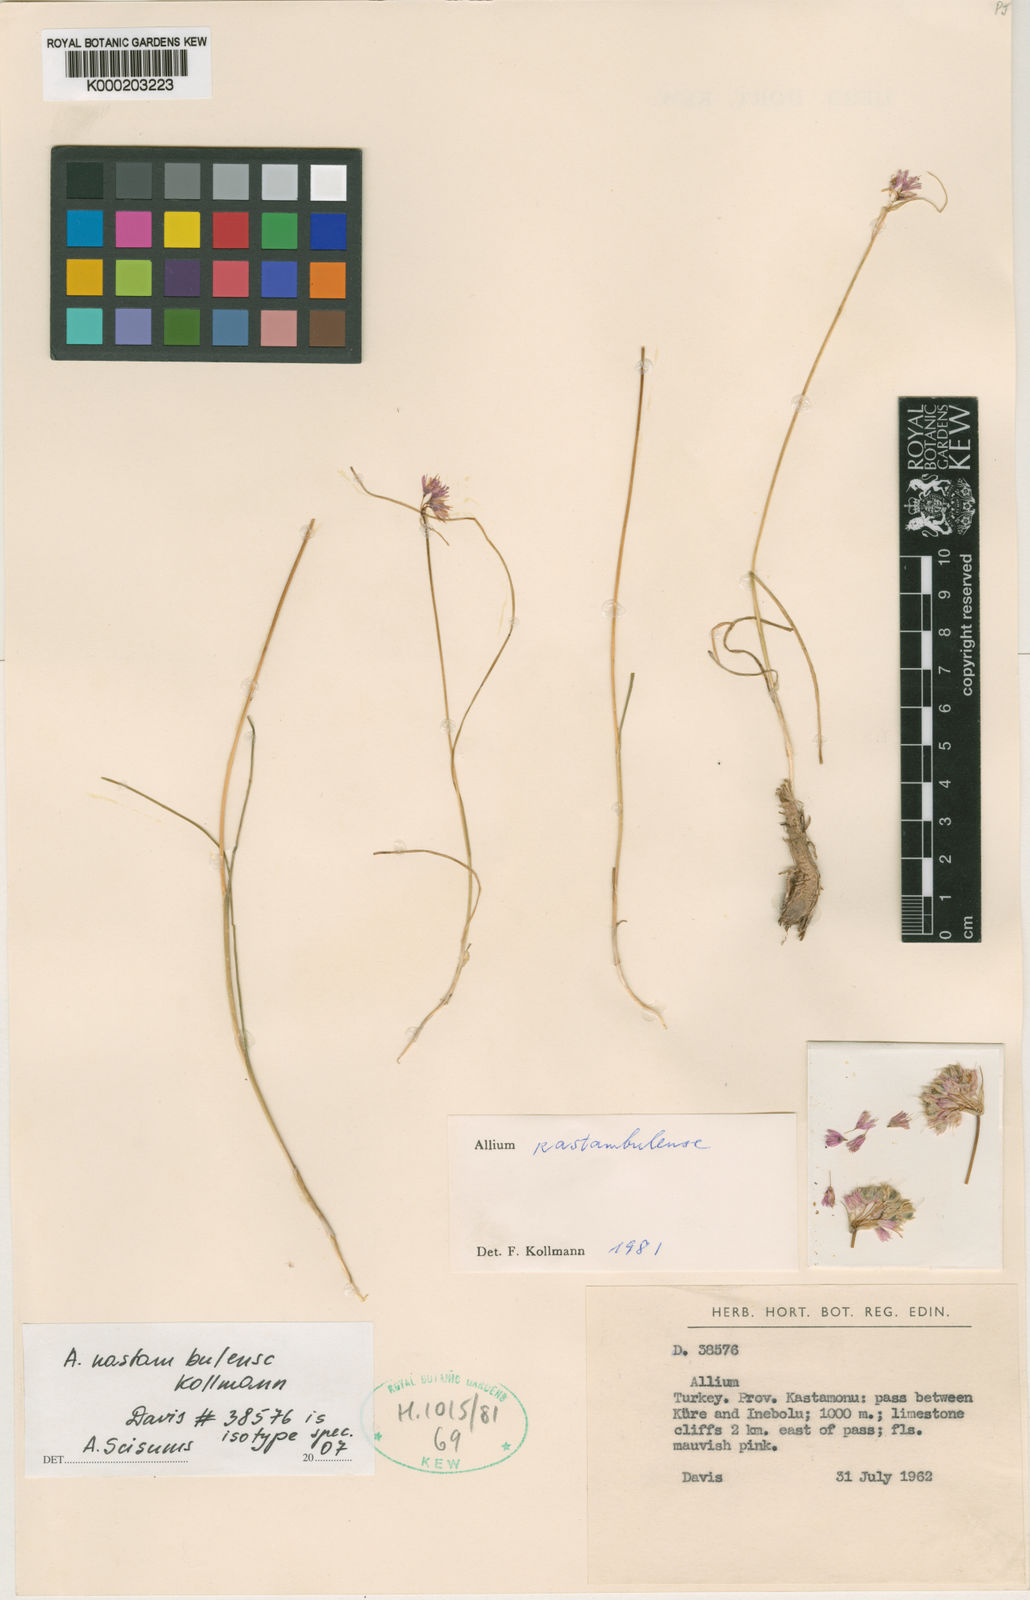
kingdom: Plantae
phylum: Tracheophyta
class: Liliopsida
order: Asparagales
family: Amaryllidaceae
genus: Allium
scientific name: Allium kastambulense
